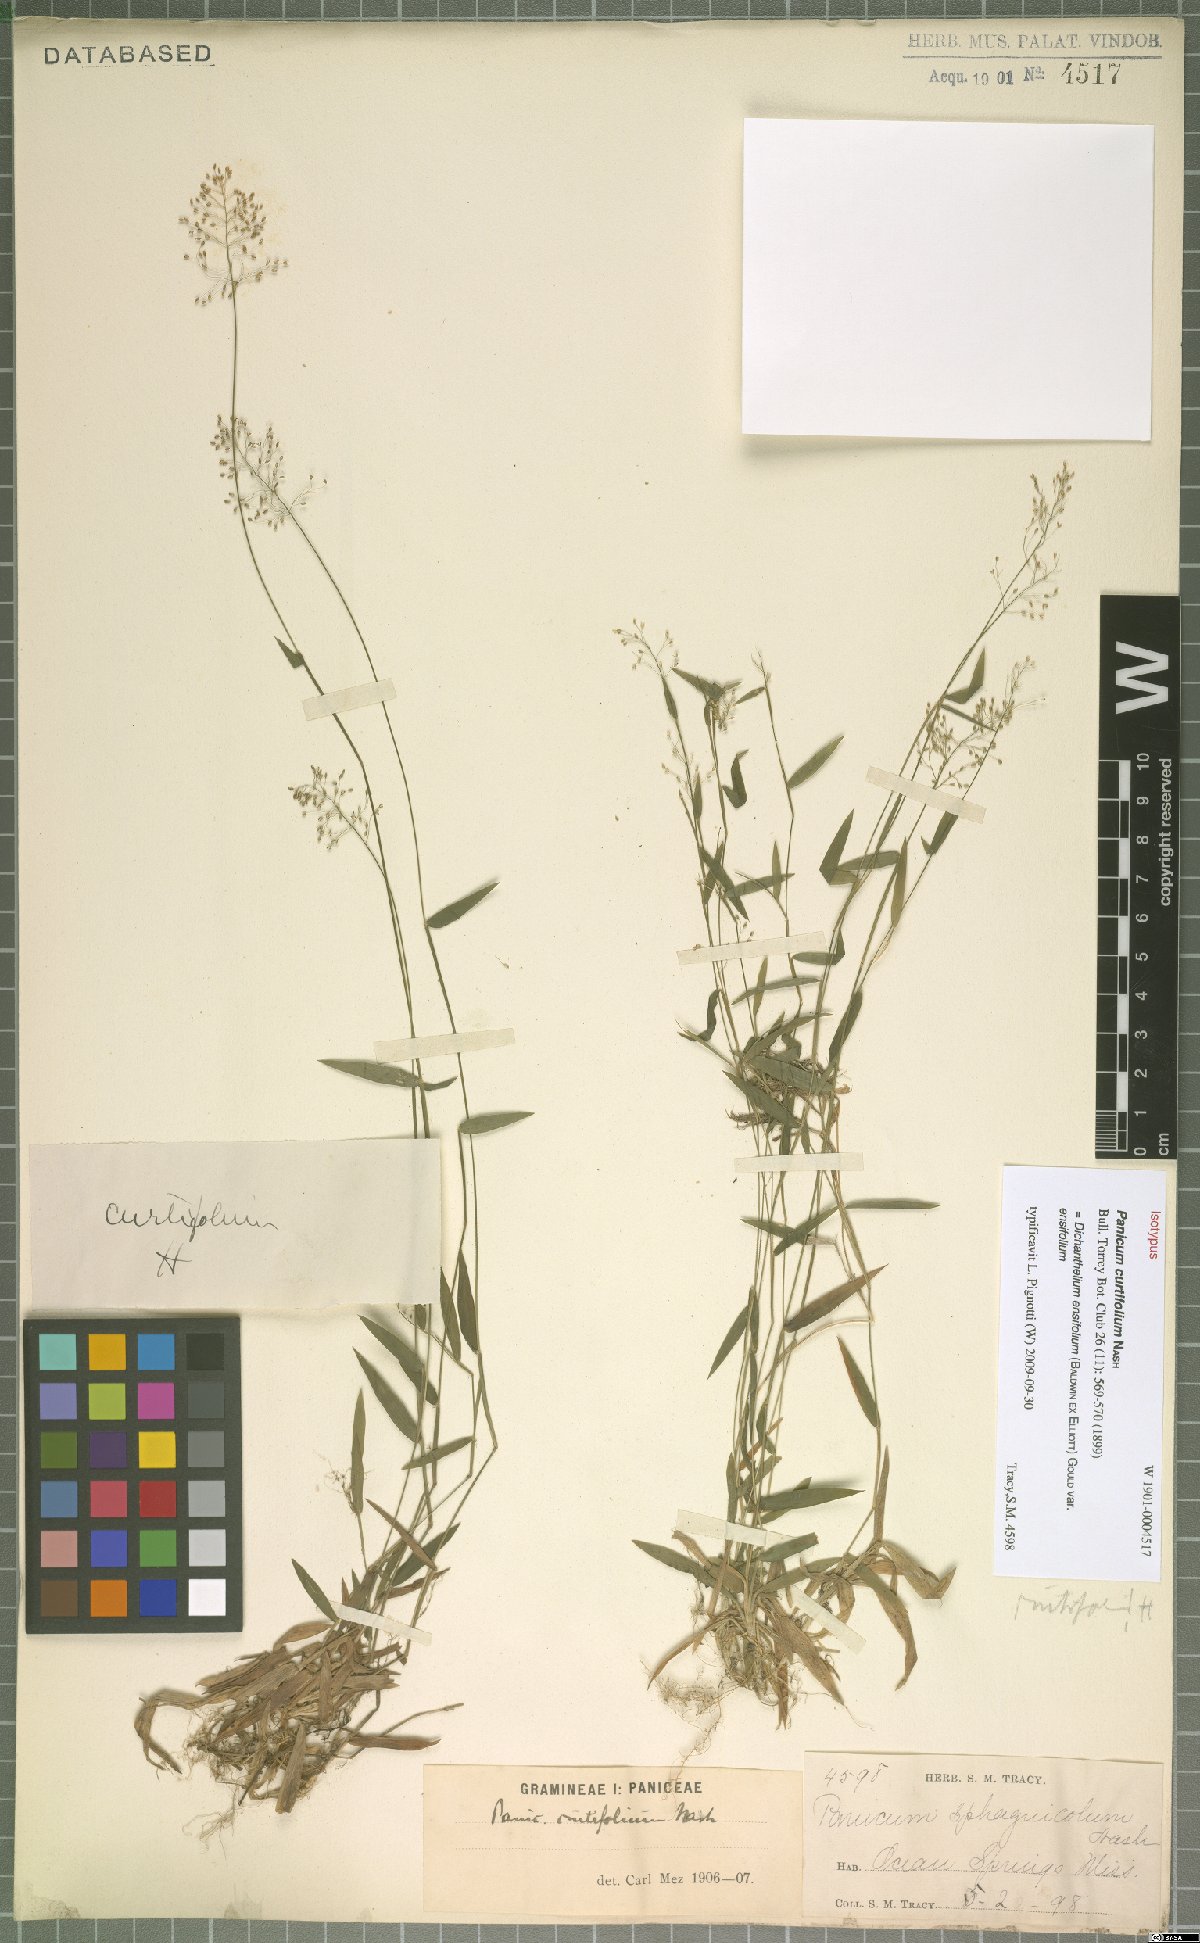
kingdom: Plantae
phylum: Tracheophyta
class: Liliopsida
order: Poales
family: Poaceae
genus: Dichanthelium
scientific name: Dichanthelium ensifolium
